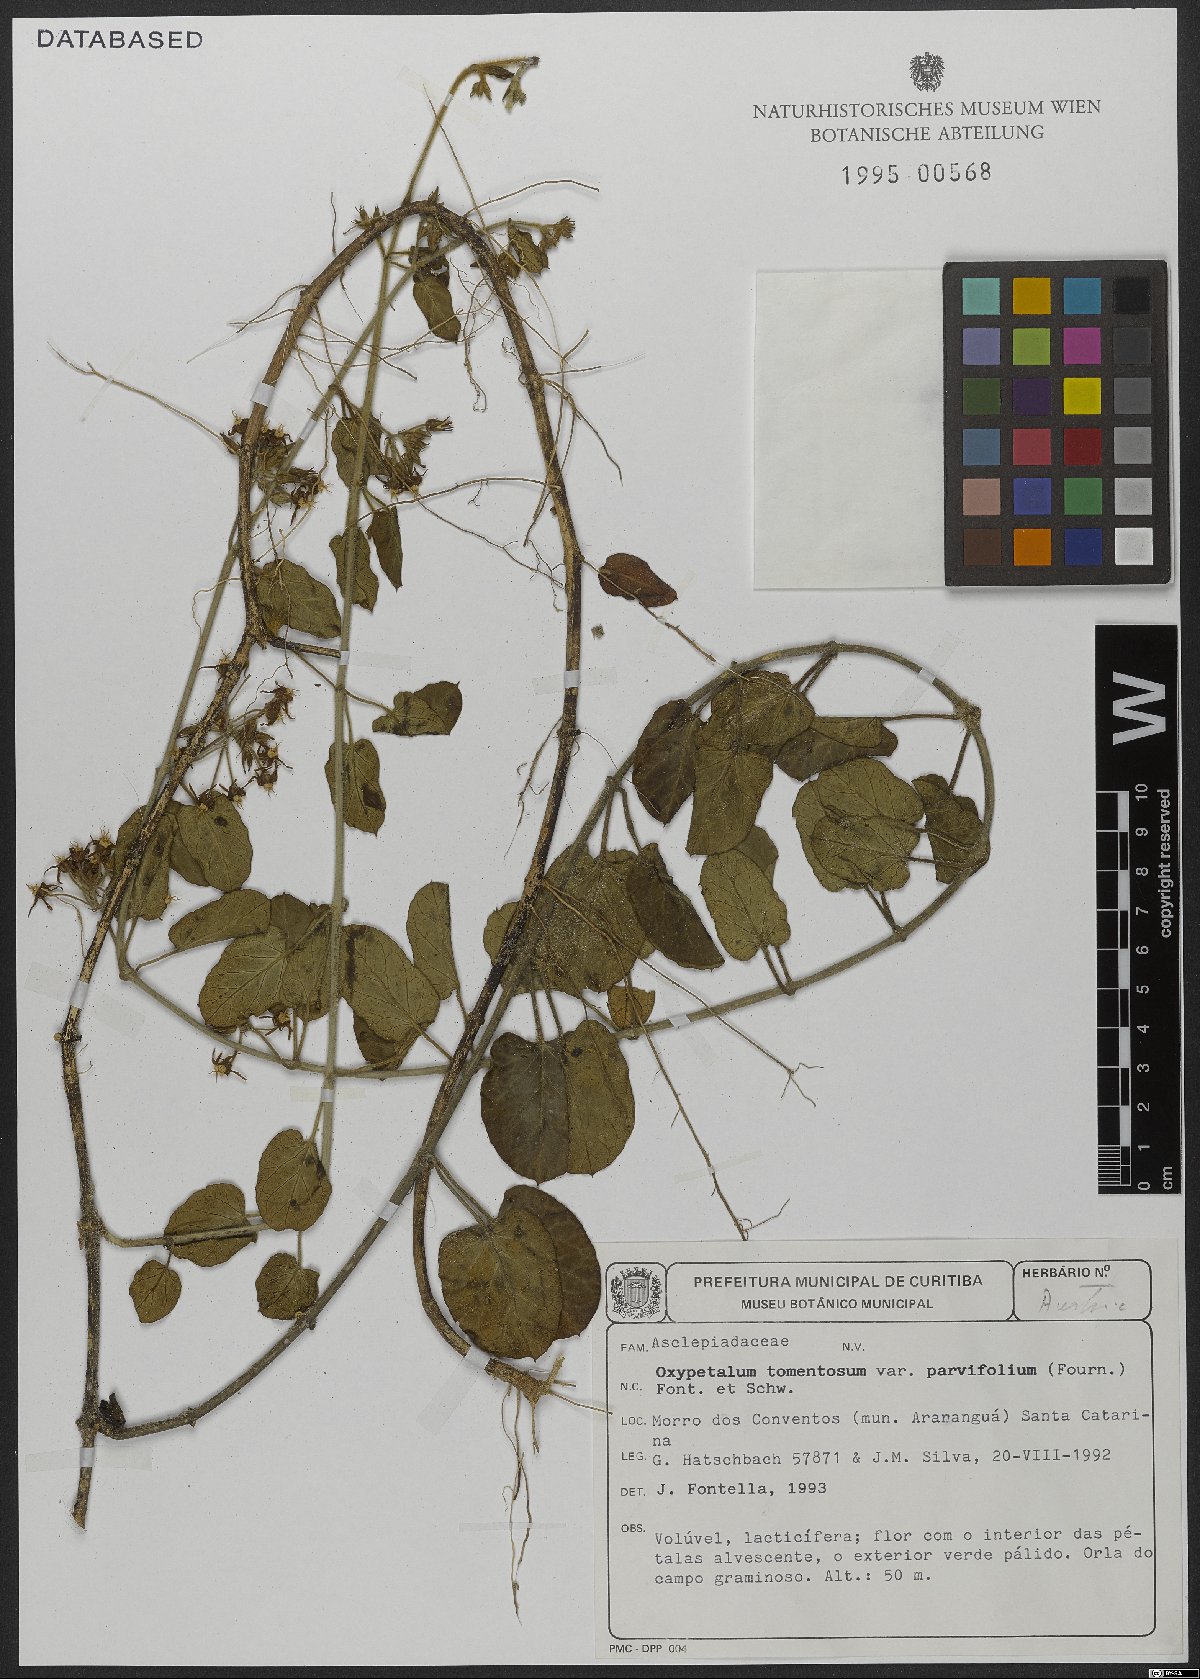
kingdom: Plantae
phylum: Tracheophyta
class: Magnoliopsida
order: Gentianales
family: Apocynaceae
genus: Oxypetalum
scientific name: Oxypetalum tomentosum
